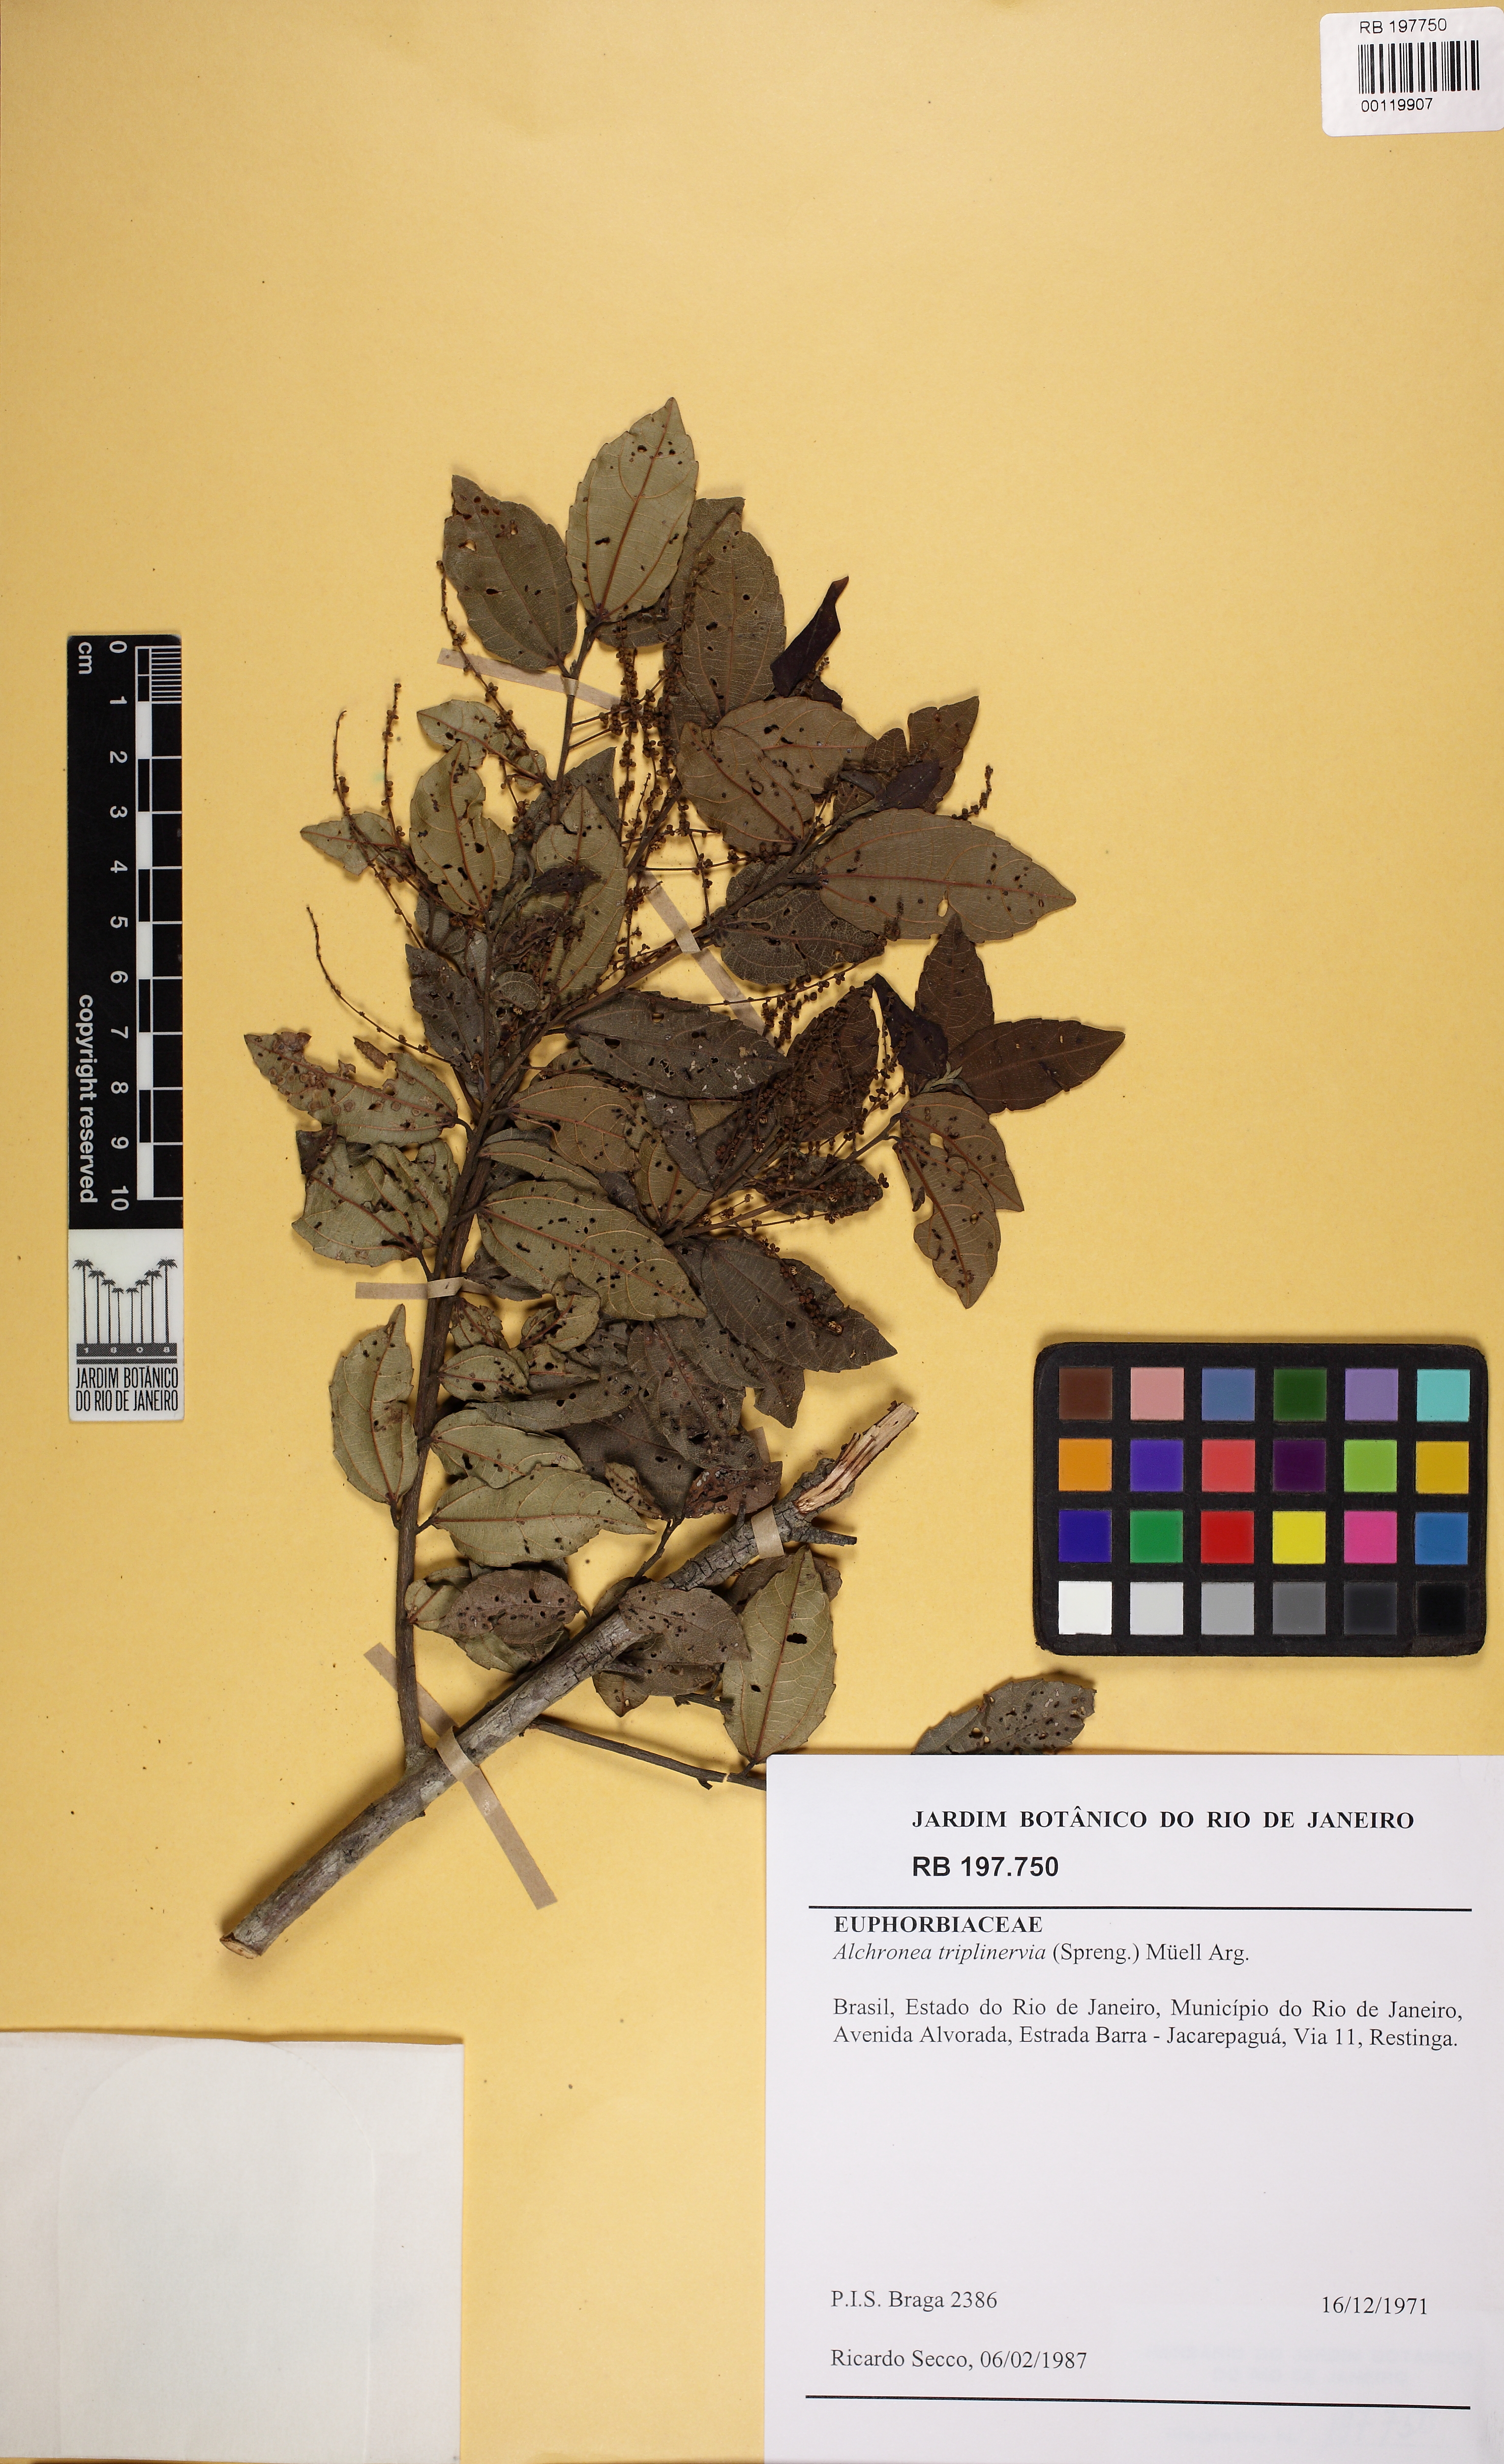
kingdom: Plantae
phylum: Tracheophyta
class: Magnoliopsida
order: Malpighiales
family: Euphorbiaceae
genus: Alchornea
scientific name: Alchornea triplinervia
